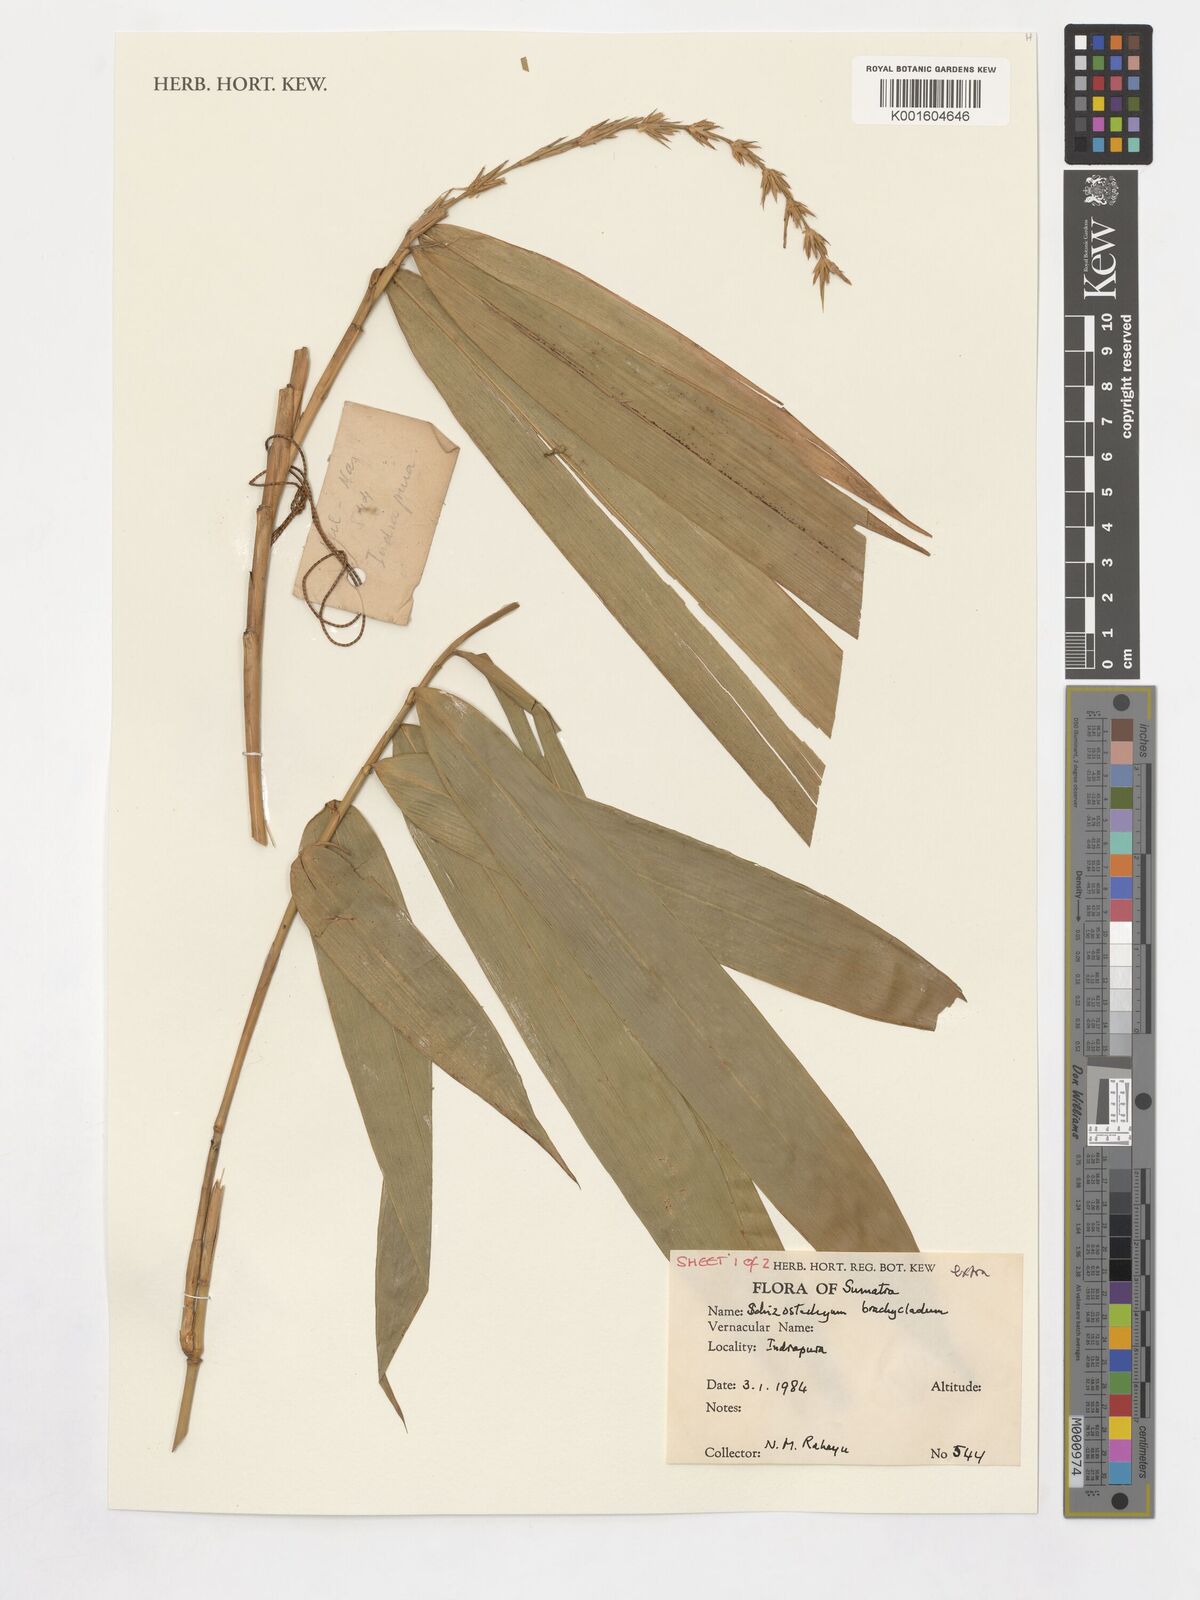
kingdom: Plantae
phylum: Tracheophyta
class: Liliopsida
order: Poales
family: Poaceae
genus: Schizostachyum
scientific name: Schizostachyum brachycladum
